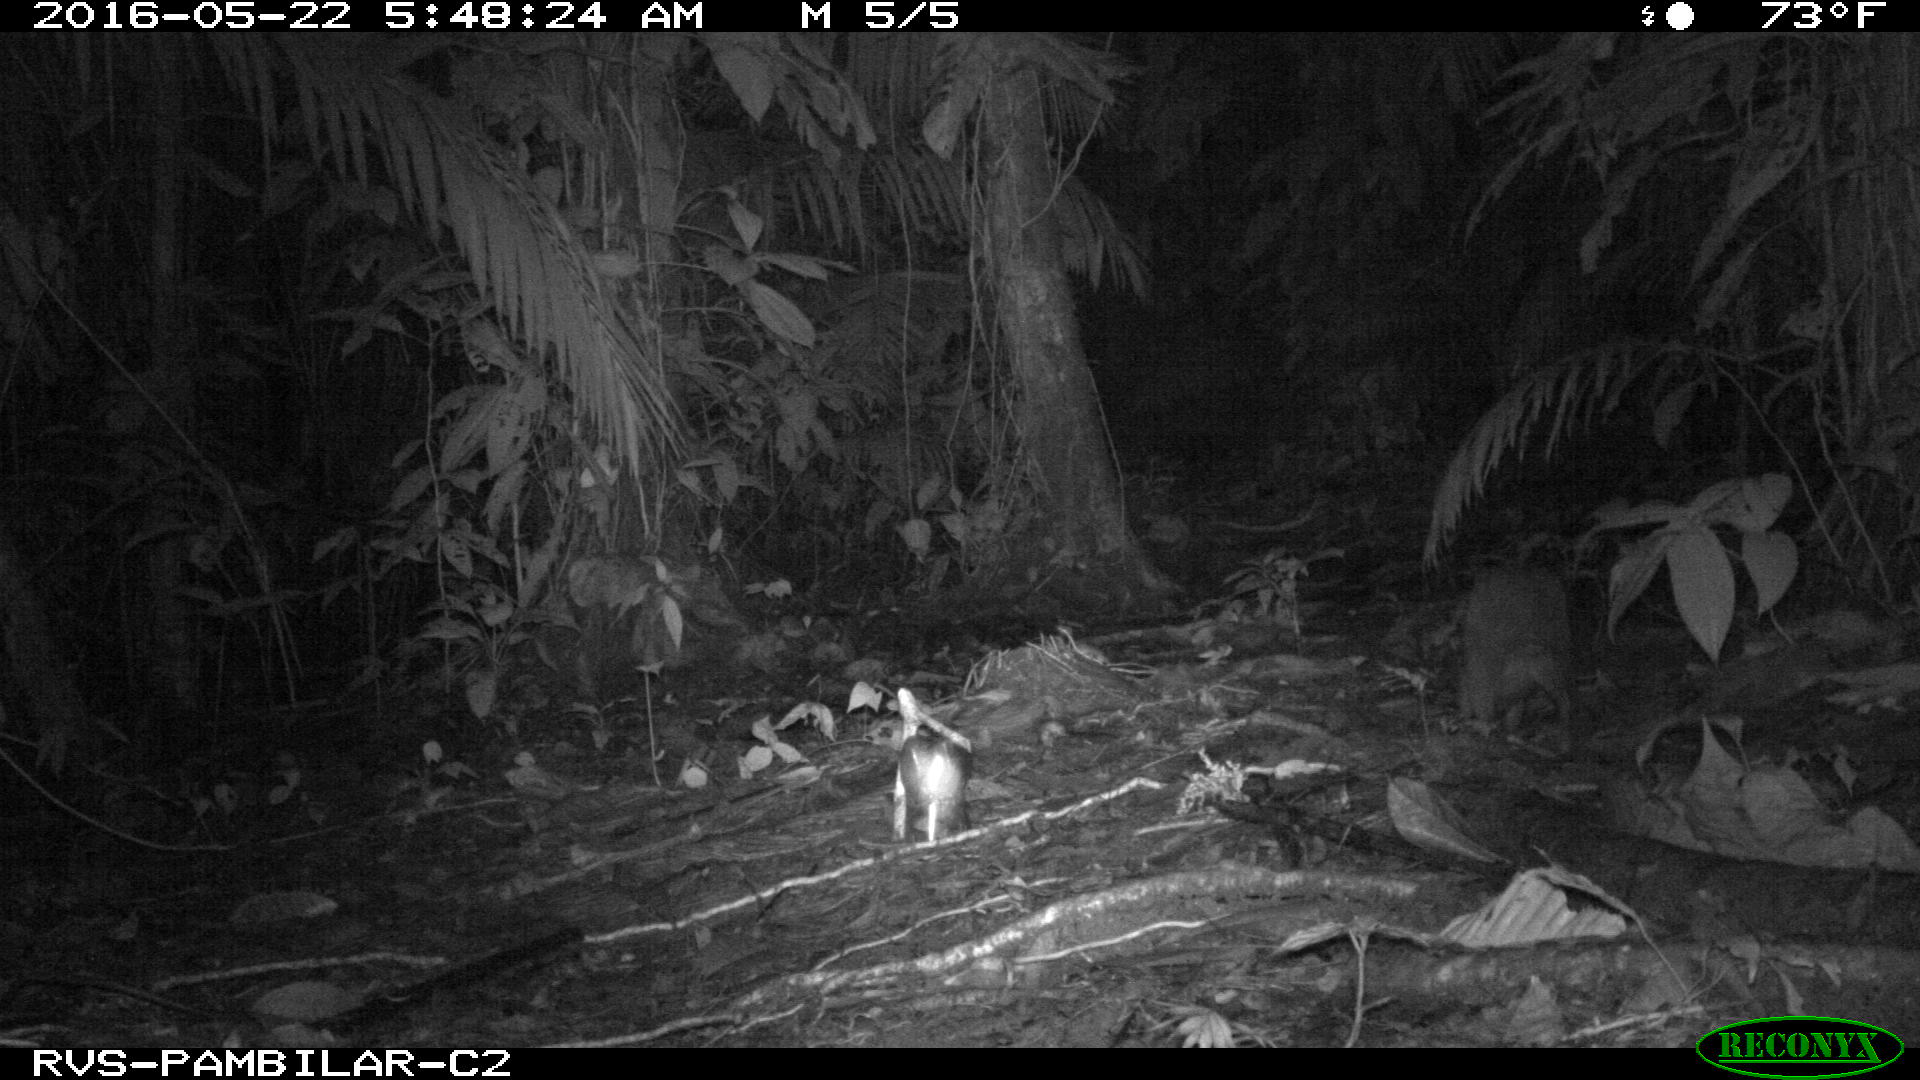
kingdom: Animalia
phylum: Chordata
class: Mammalia
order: Rodentia
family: Dasyproctidae
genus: Dasyprocta
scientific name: Dasyprocta punctata
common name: Central american agouti
